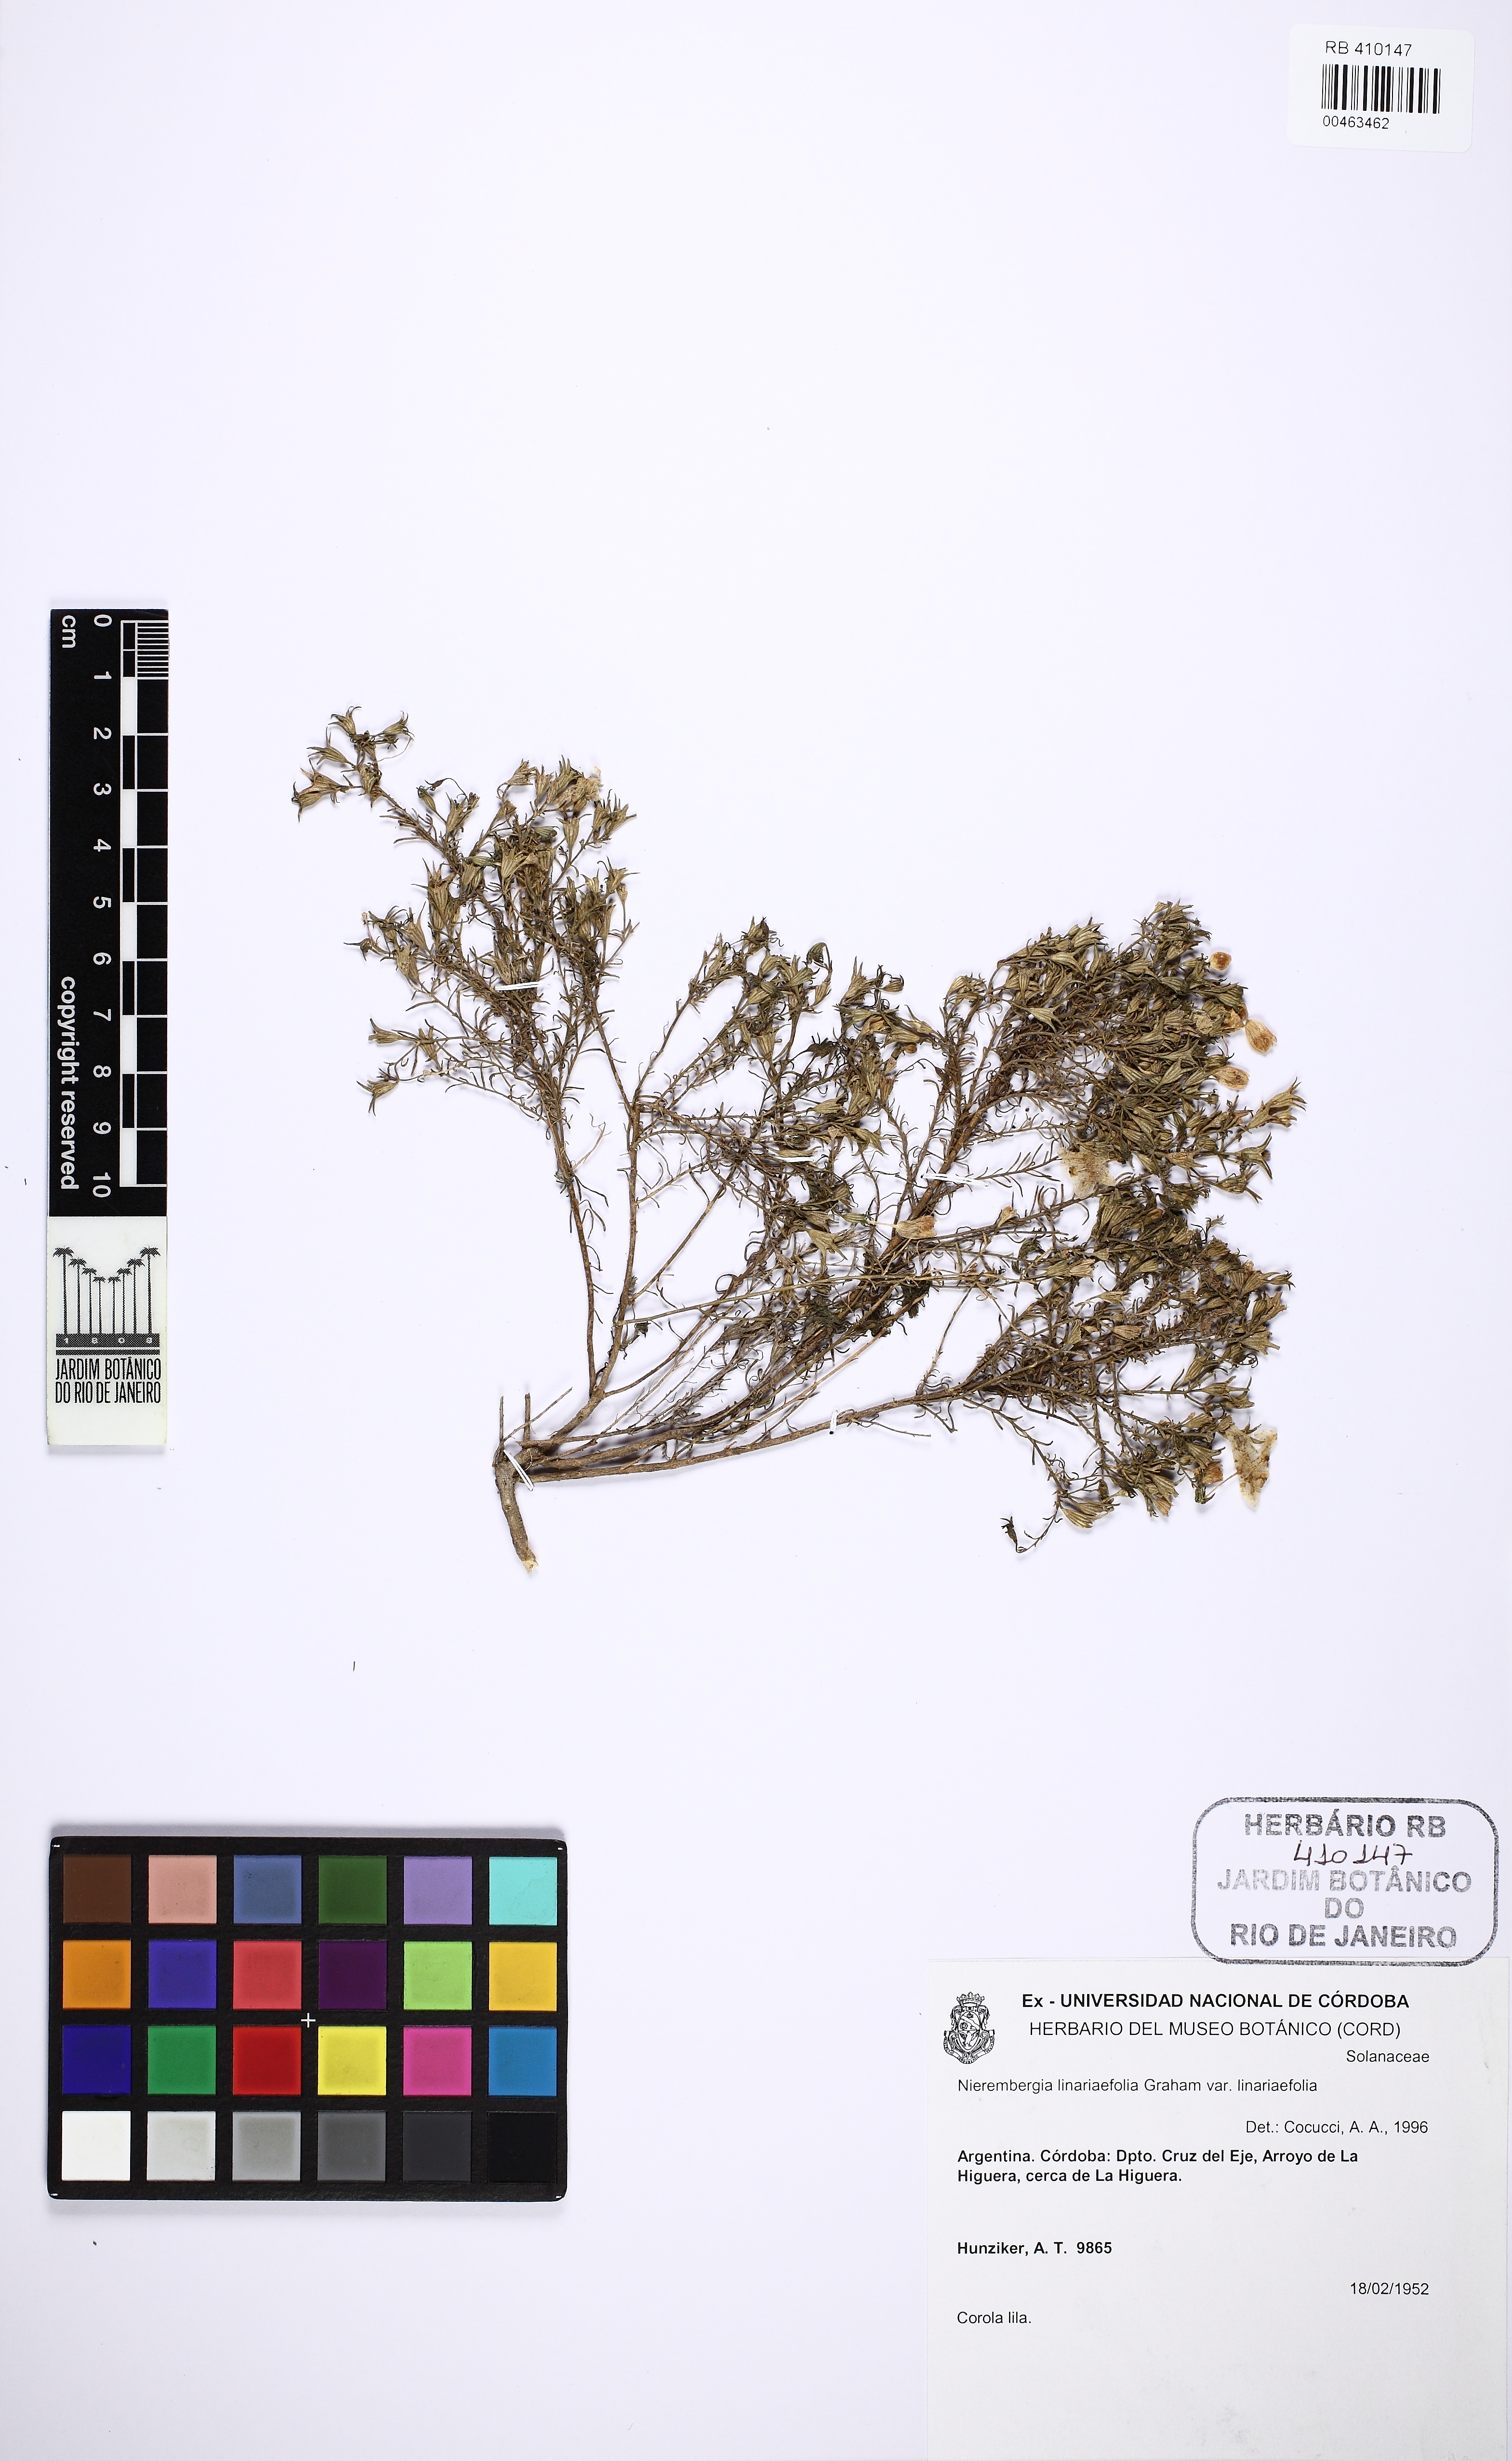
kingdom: Plantae
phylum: Tracheophyta
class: Magnoliopsida
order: Solanales
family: Solanaceae
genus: Nierembergia
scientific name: Nierembergia linariifolia
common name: Dwarf cupflower
